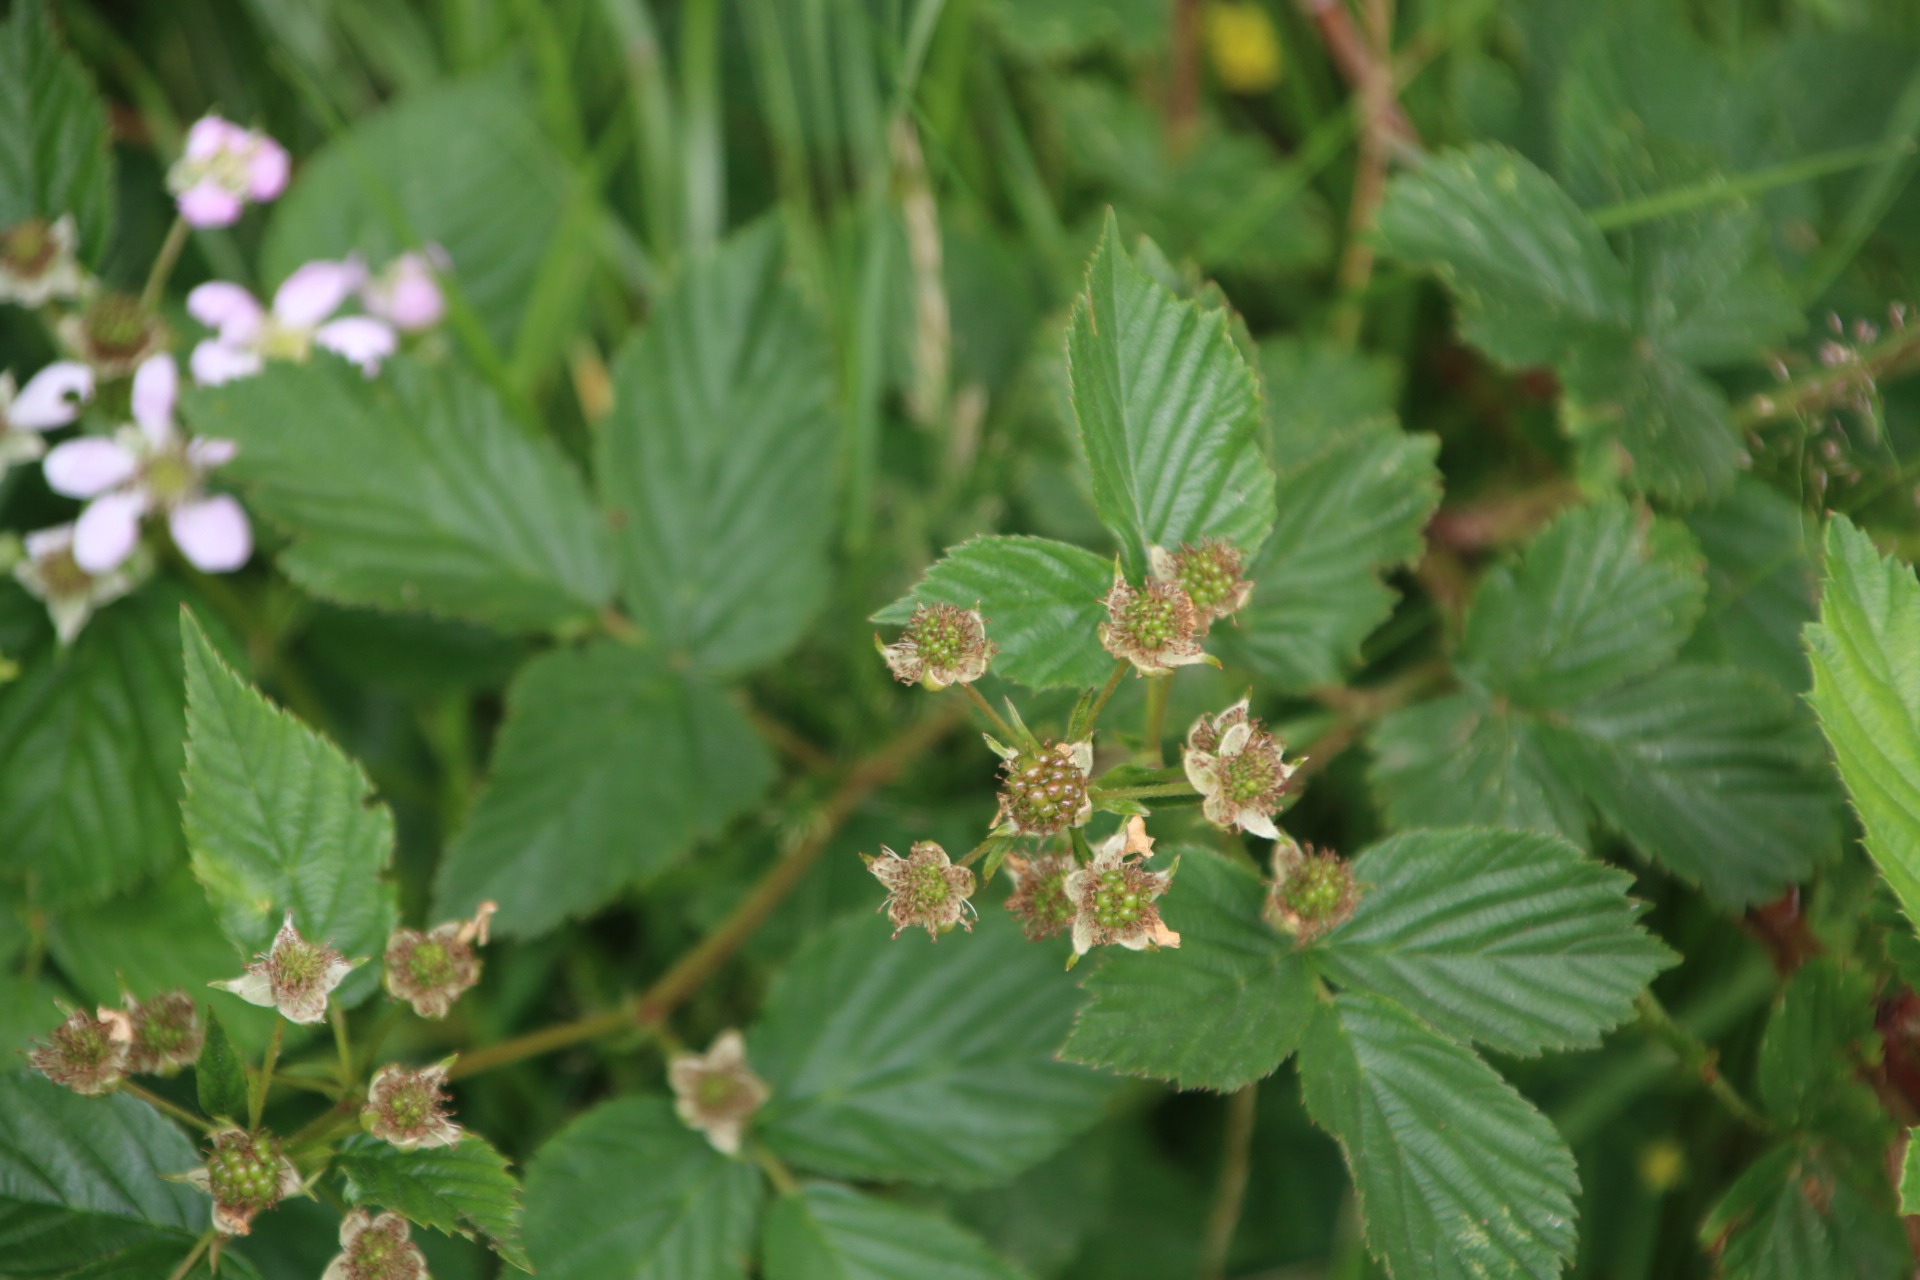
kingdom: Plantae
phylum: Tracheophyta
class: Magnoliopsida
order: Rosales
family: Rosaceae
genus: Rubus
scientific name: Rubus plicatus
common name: Almindelig brombær
